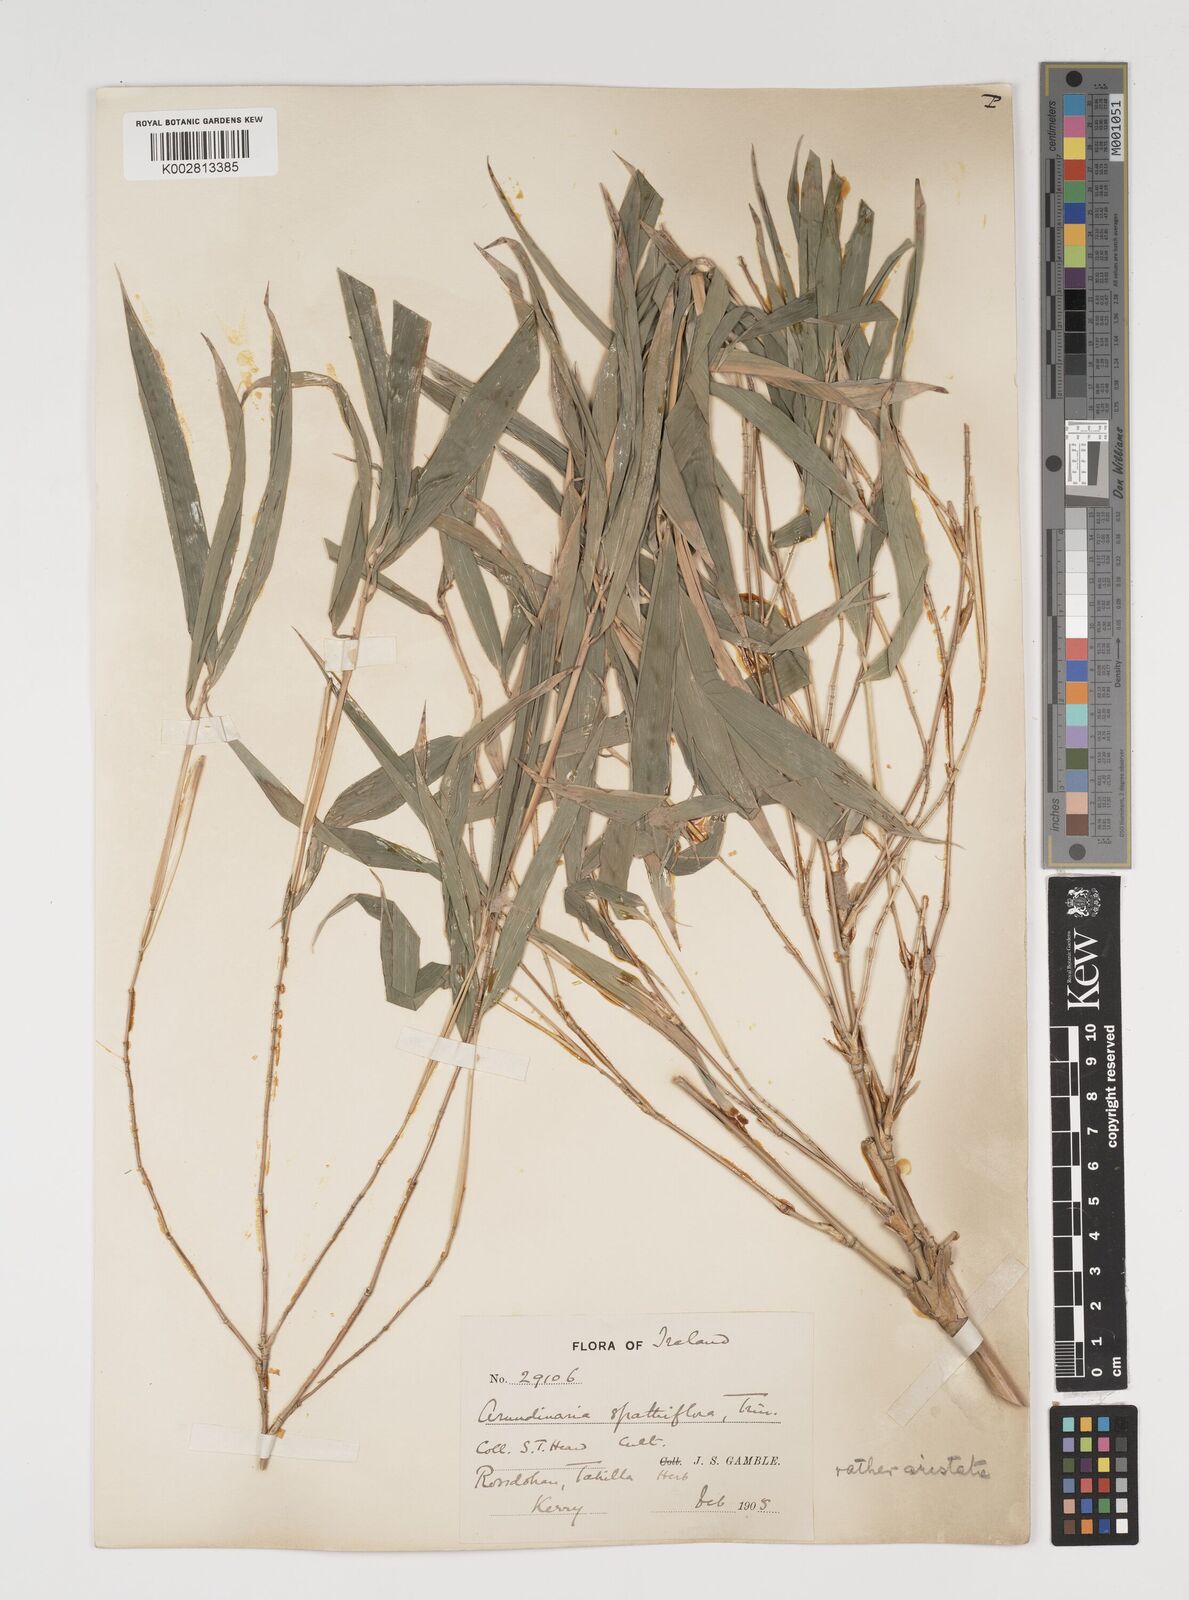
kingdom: Plantae
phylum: Tracheophyta
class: Liliopsida
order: Poales
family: Poaceae
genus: Thamnocalamus
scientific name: Thamnocalamus spathiflorus
